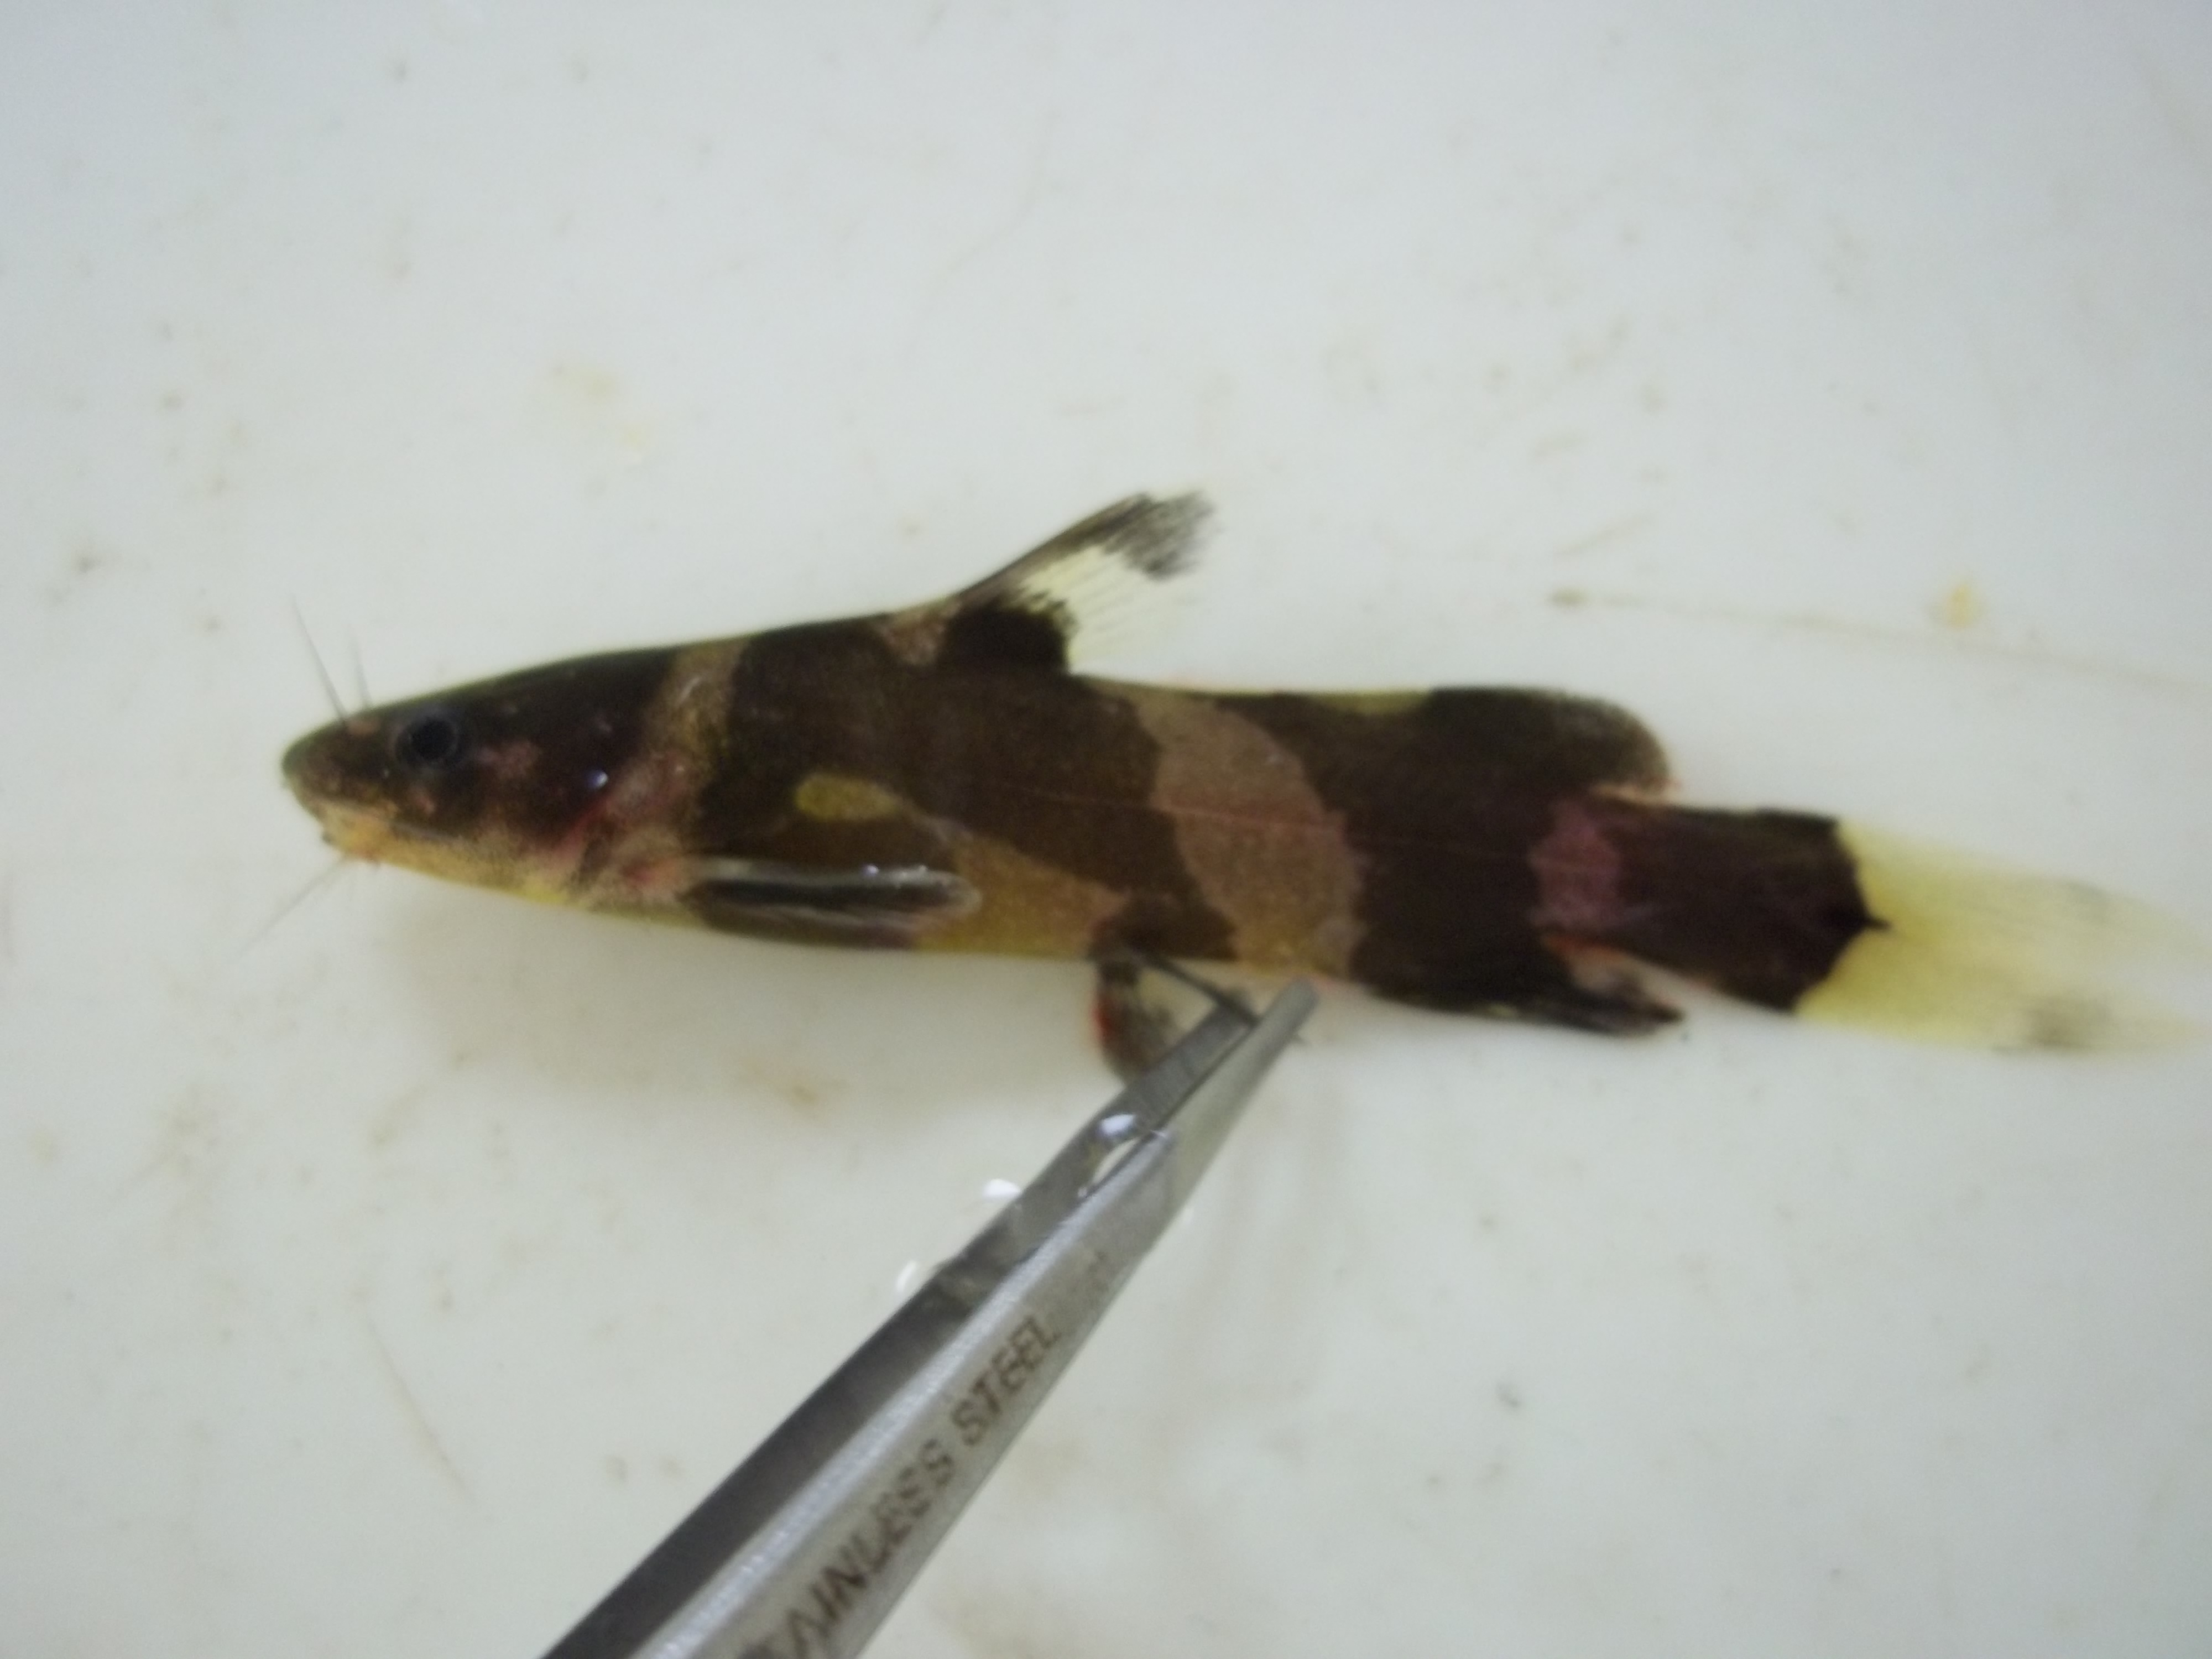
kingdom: Animalia
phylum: Chordata
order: Siluriformes
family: Bagridae
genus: Pseudomystus
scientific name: Pseudomystus
